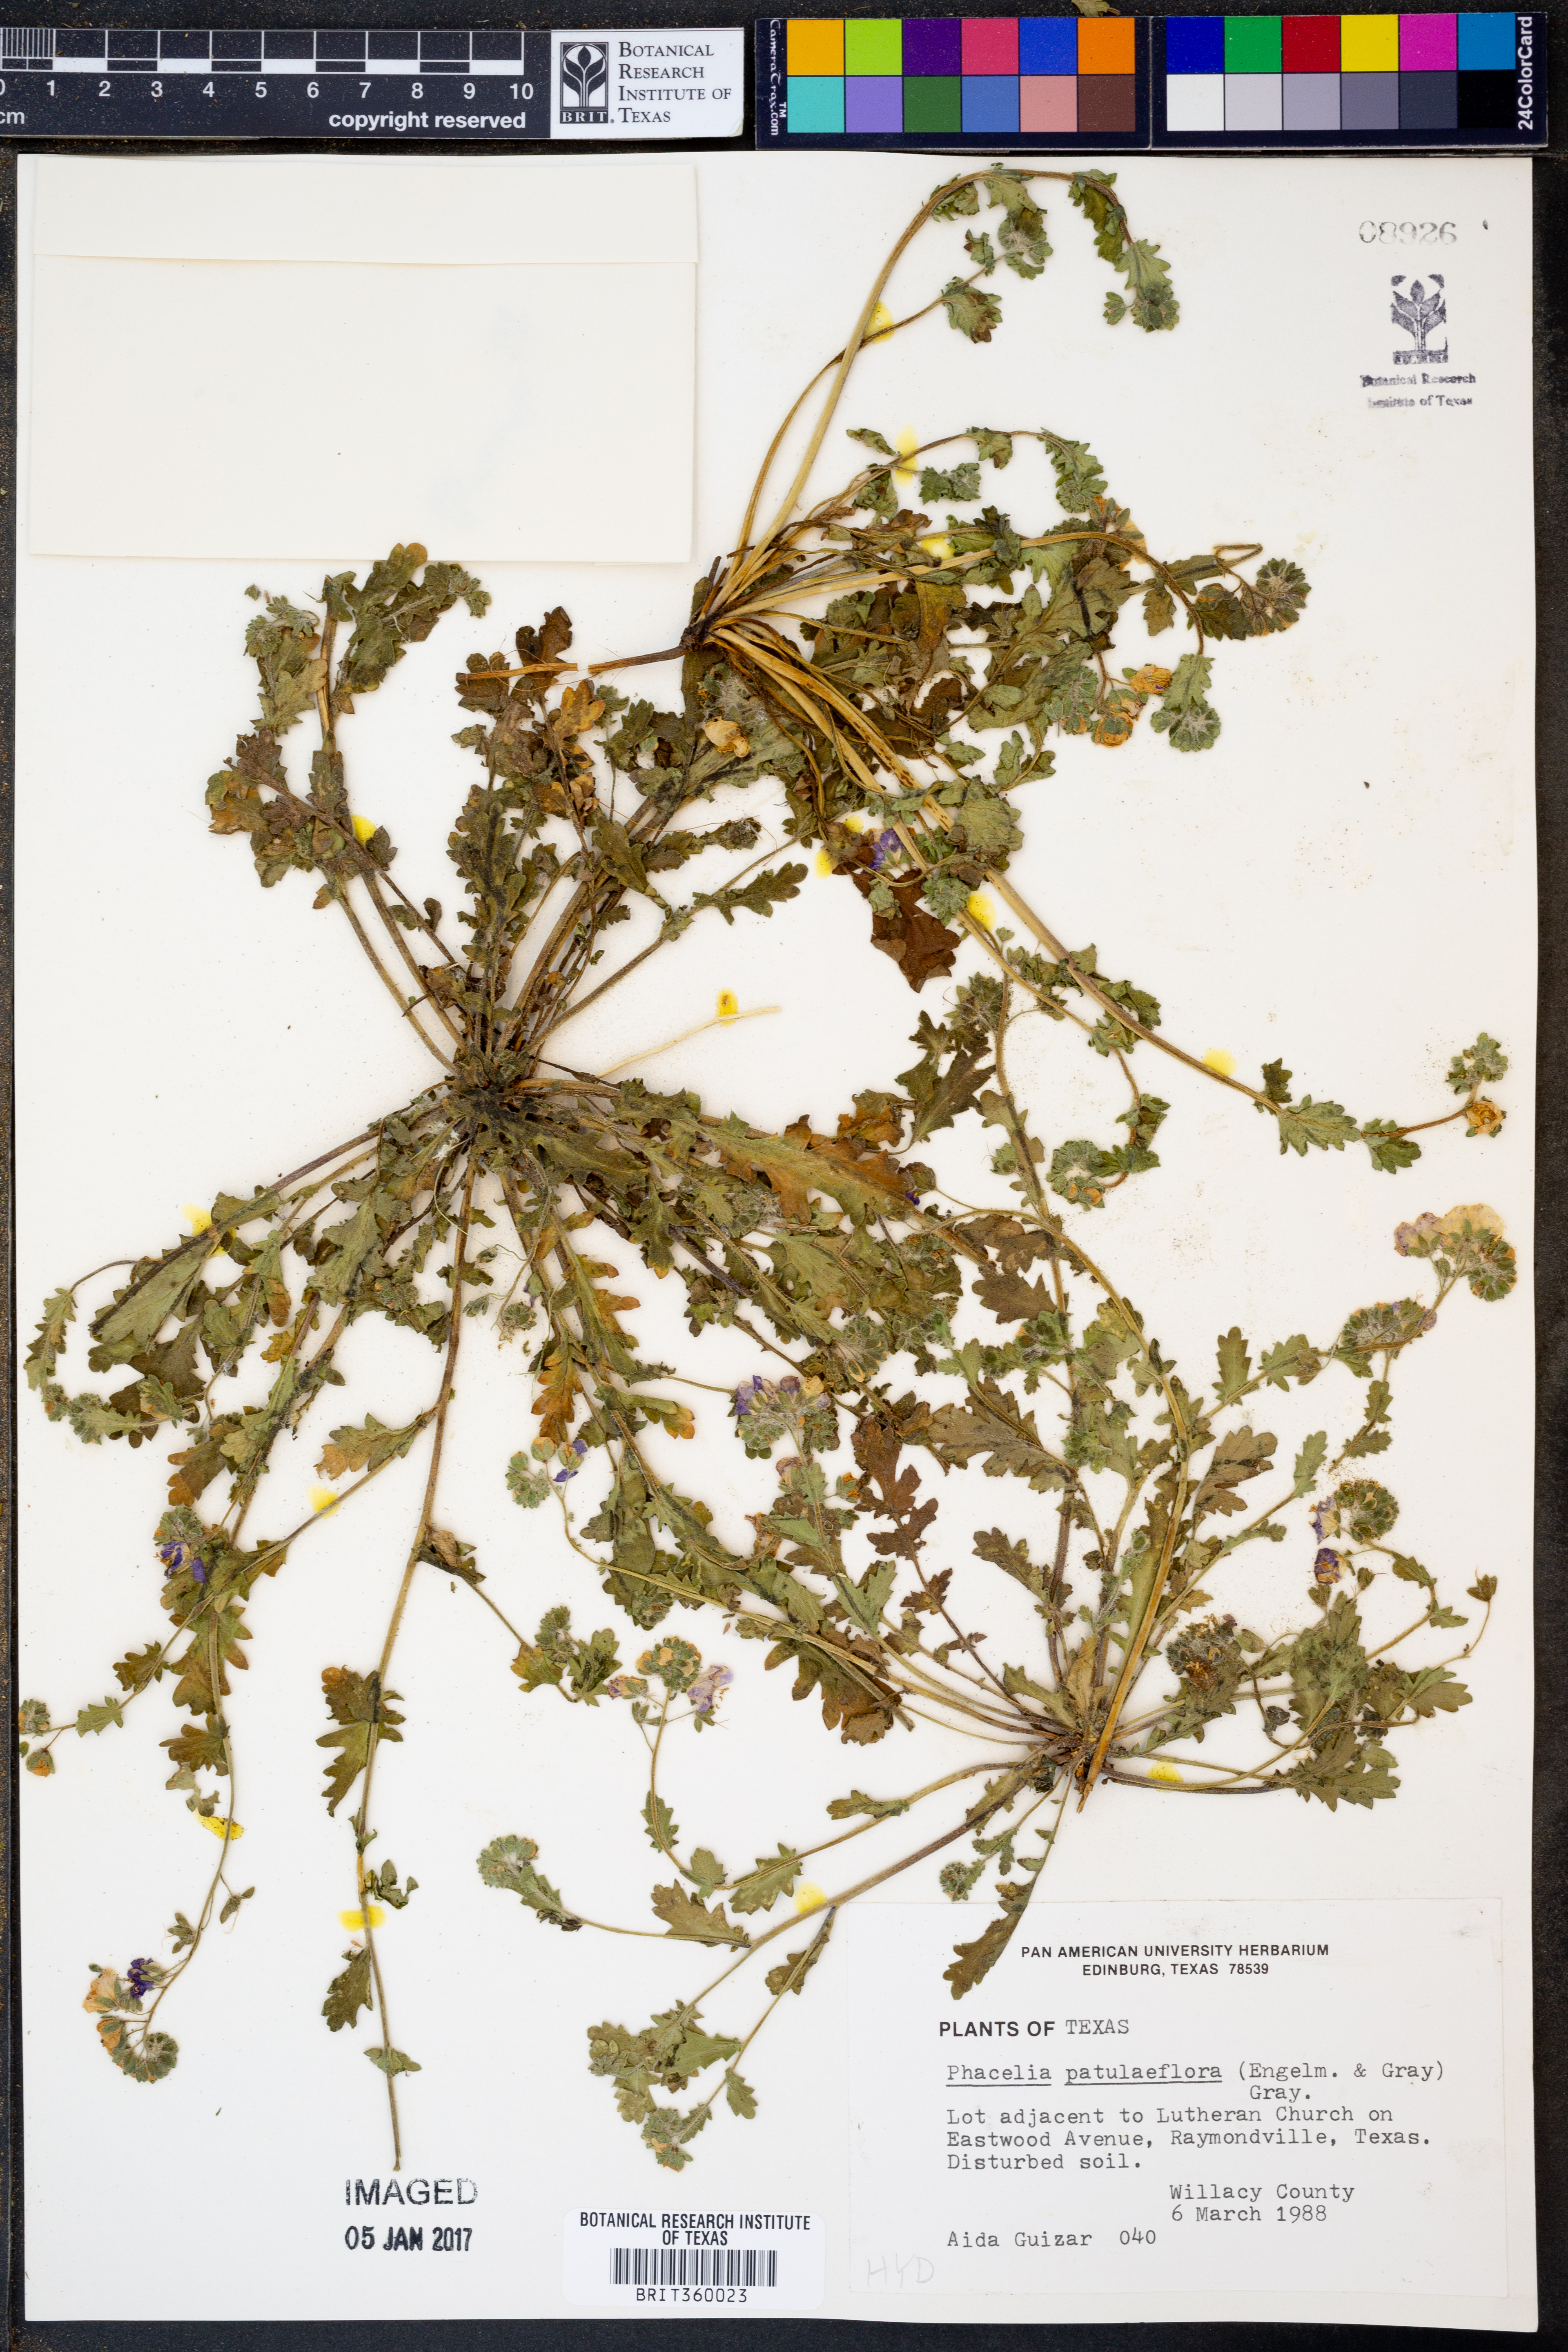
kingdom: Plantae
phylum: Tracheophyta
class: Magnoliopsida
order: Boraginales
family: Hydrophyllaceae
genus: Phacelia
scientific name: Phacelia patuliflora
